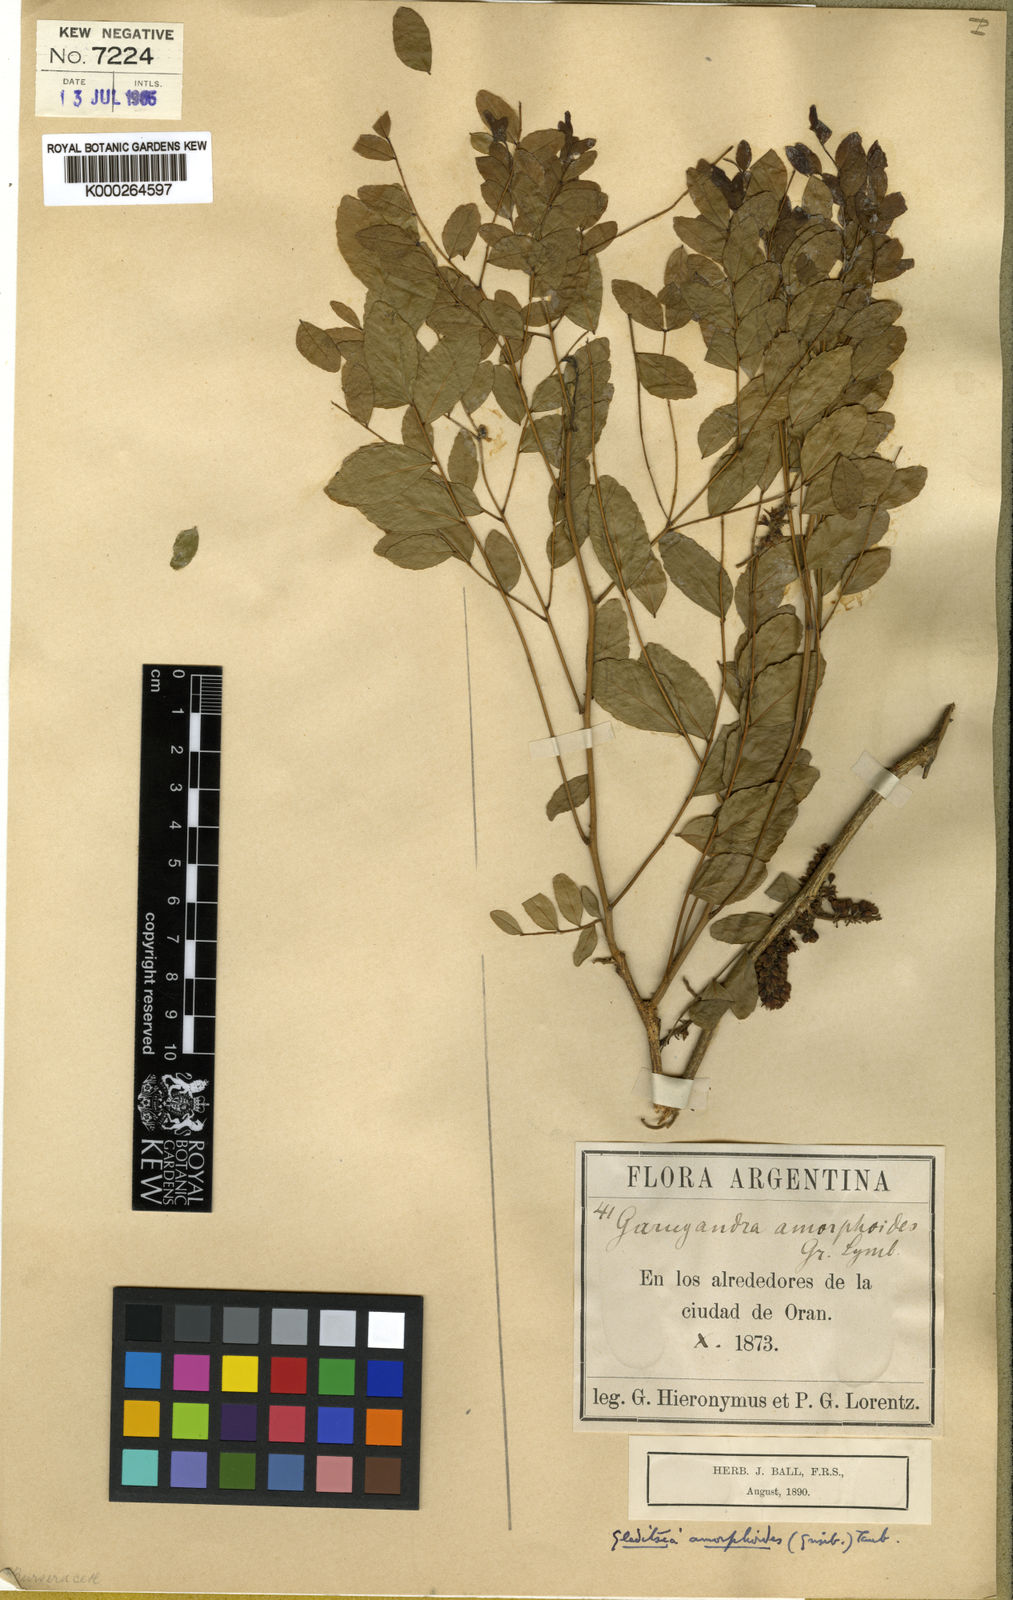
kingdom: Plantae
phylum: Tracheophyta
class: Magnoliopsida
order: Fabales
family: Fabaceae
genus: Gleditsia
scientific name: Gleditsia amorphoides
